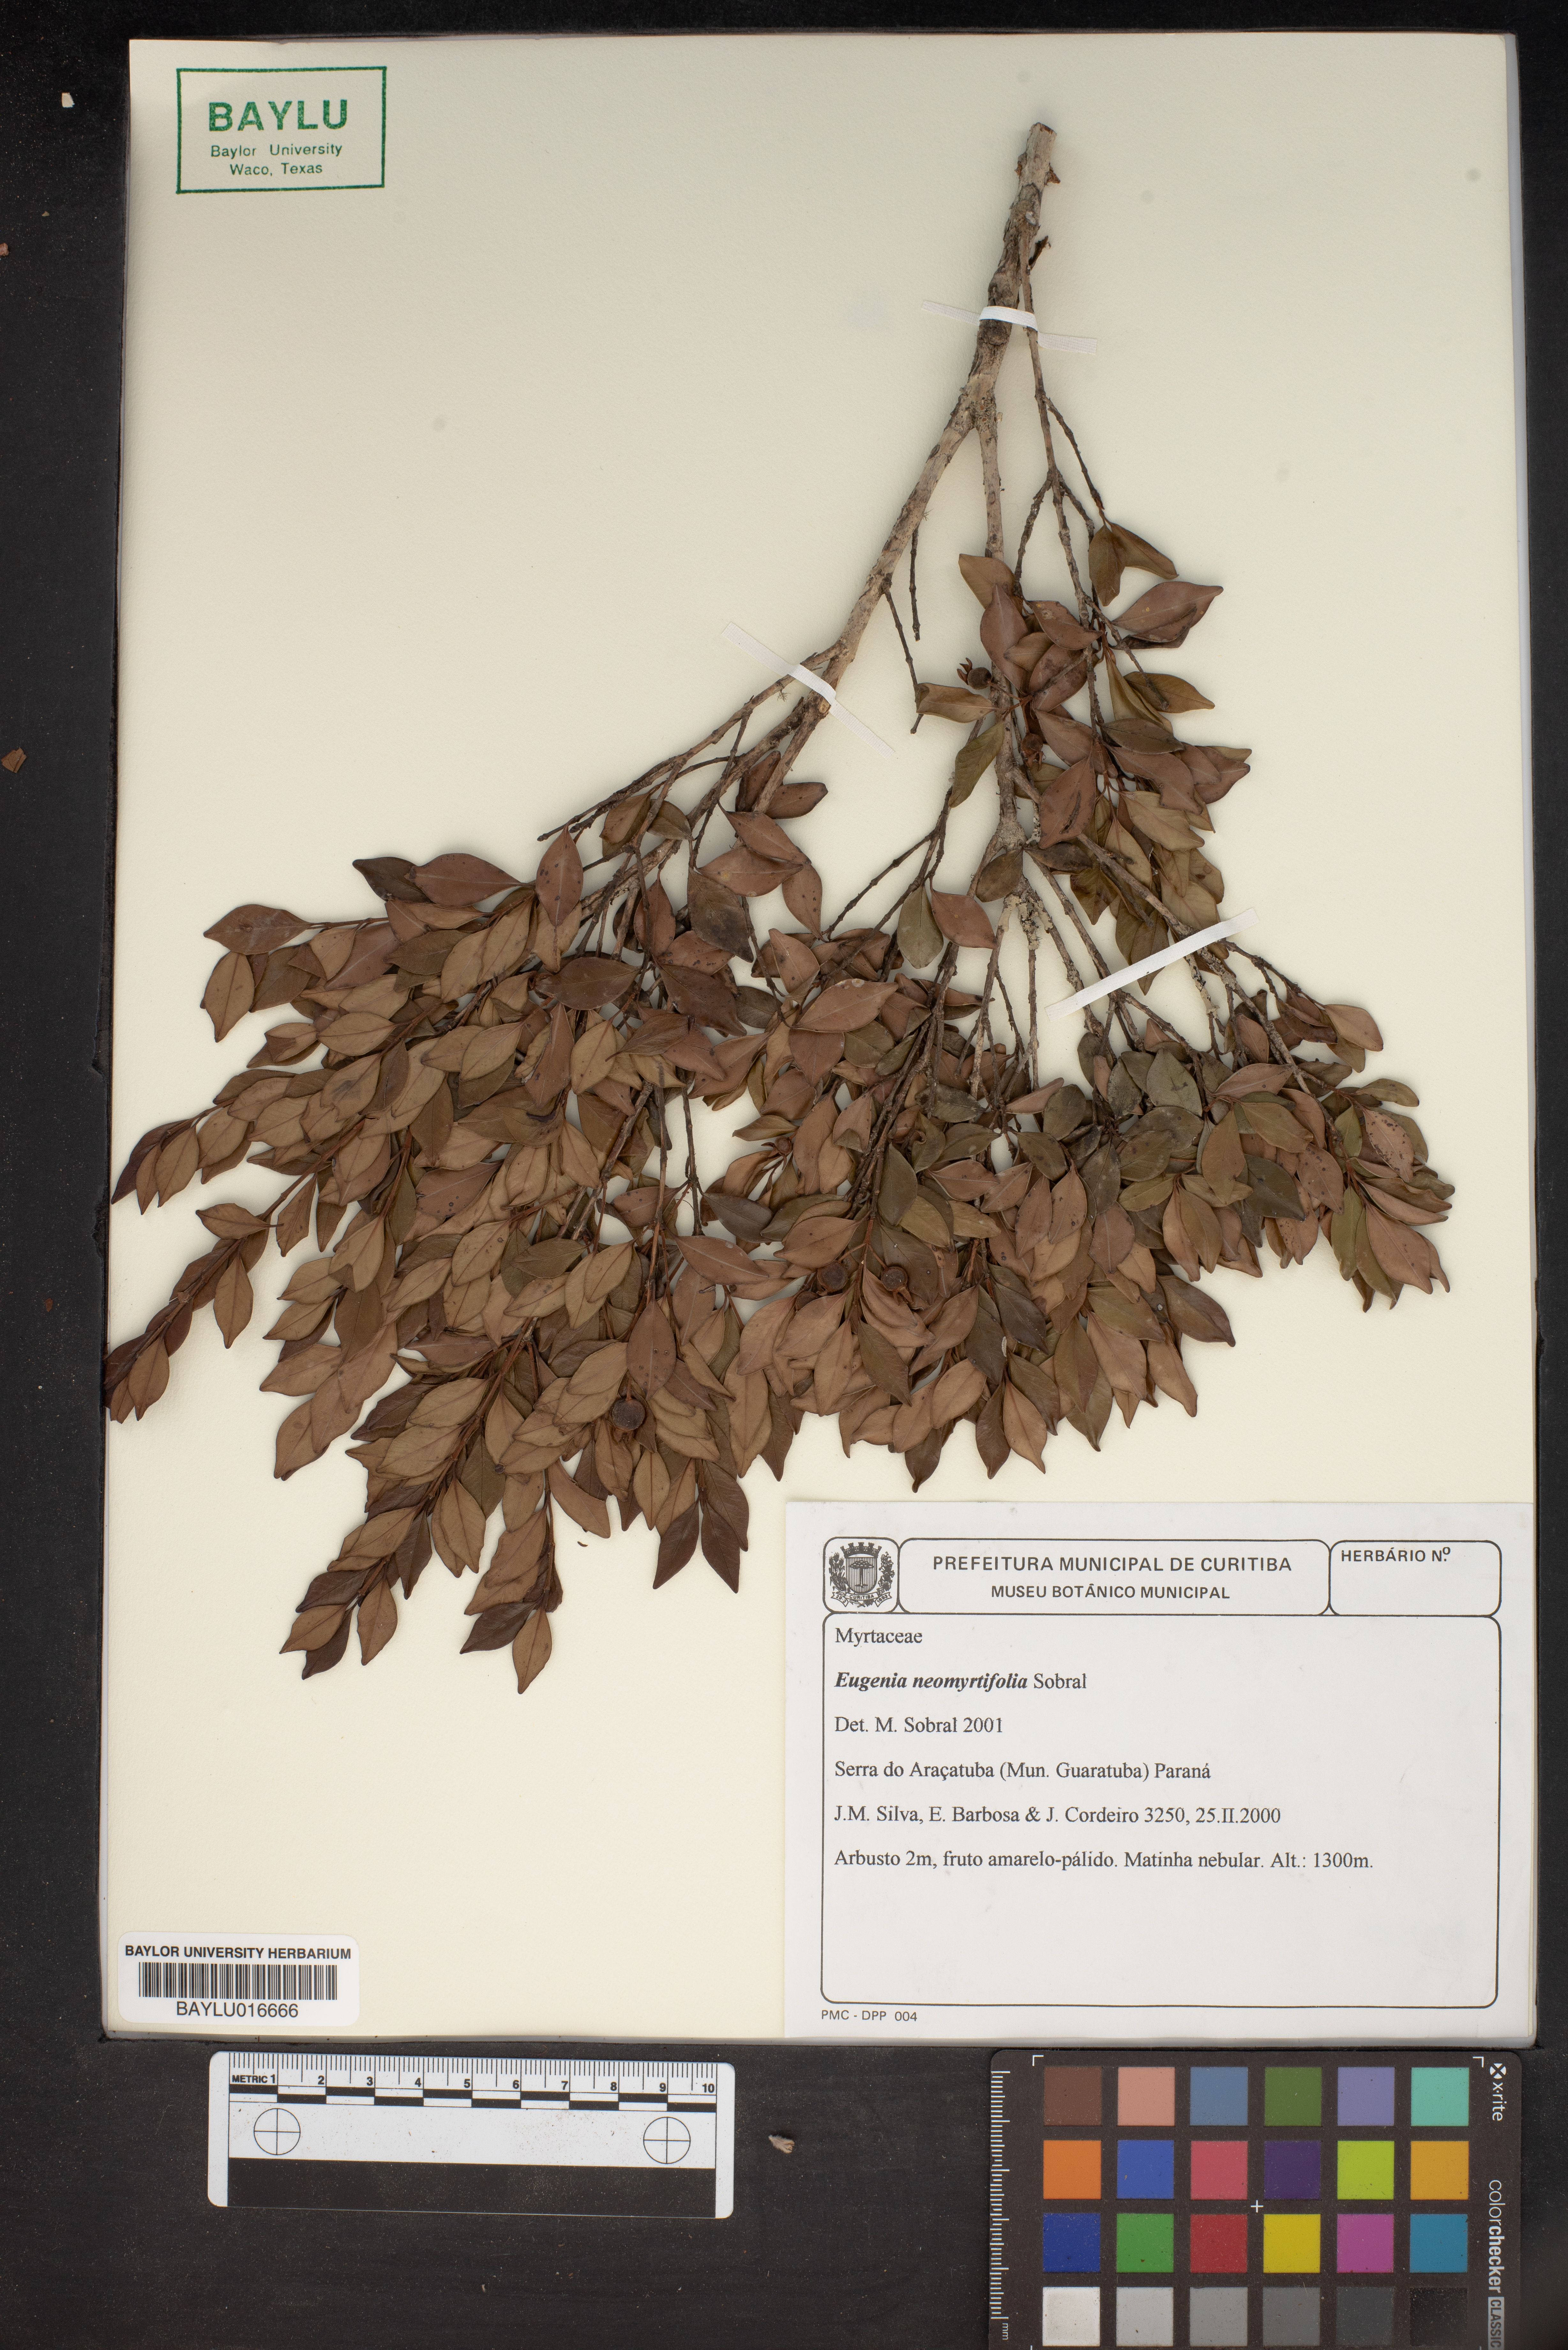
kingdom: Plantae
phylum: Tracheophyta
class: Magnoliopsida
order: Myrtales
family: Myrtaceae
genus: Eugenia
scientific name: Eugenia neomyrtifolia
